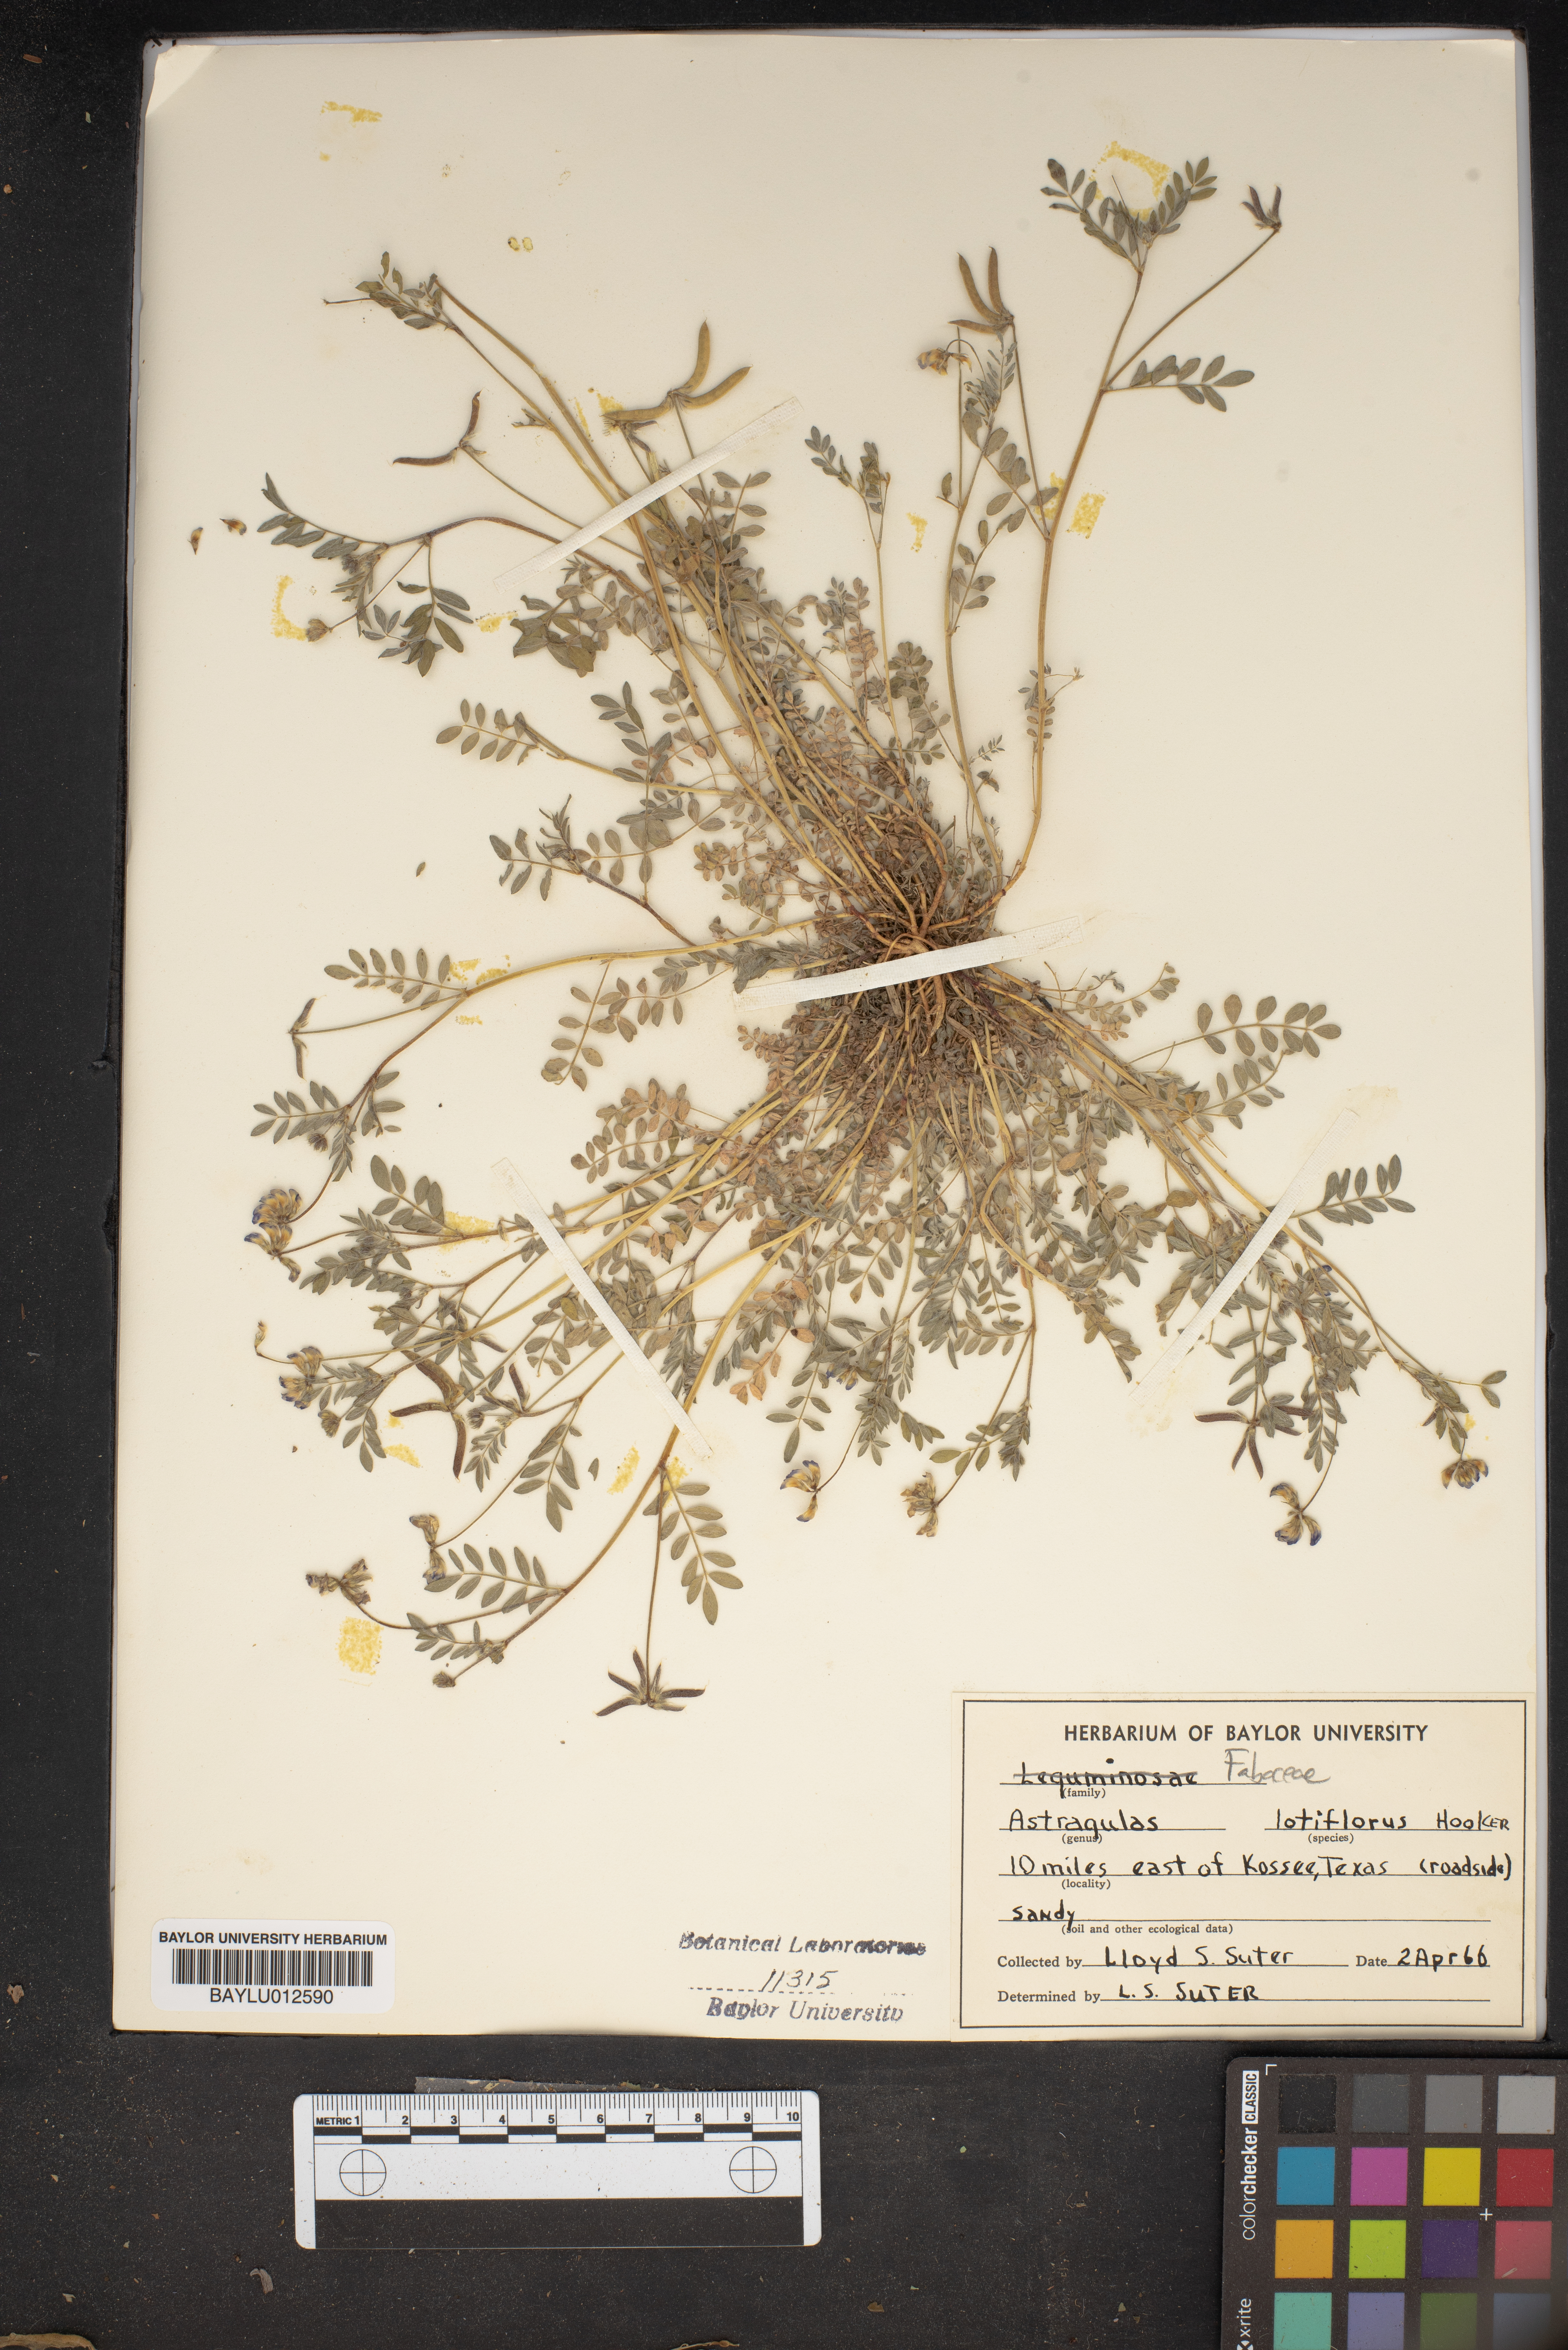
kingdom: Plantae
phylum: Tracheophyta
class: Magnoliopsida
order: Fabales
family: Fabaceae
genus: Astragalus
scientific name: Astragalus lotiflorus
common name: Lotus milk-vetch
